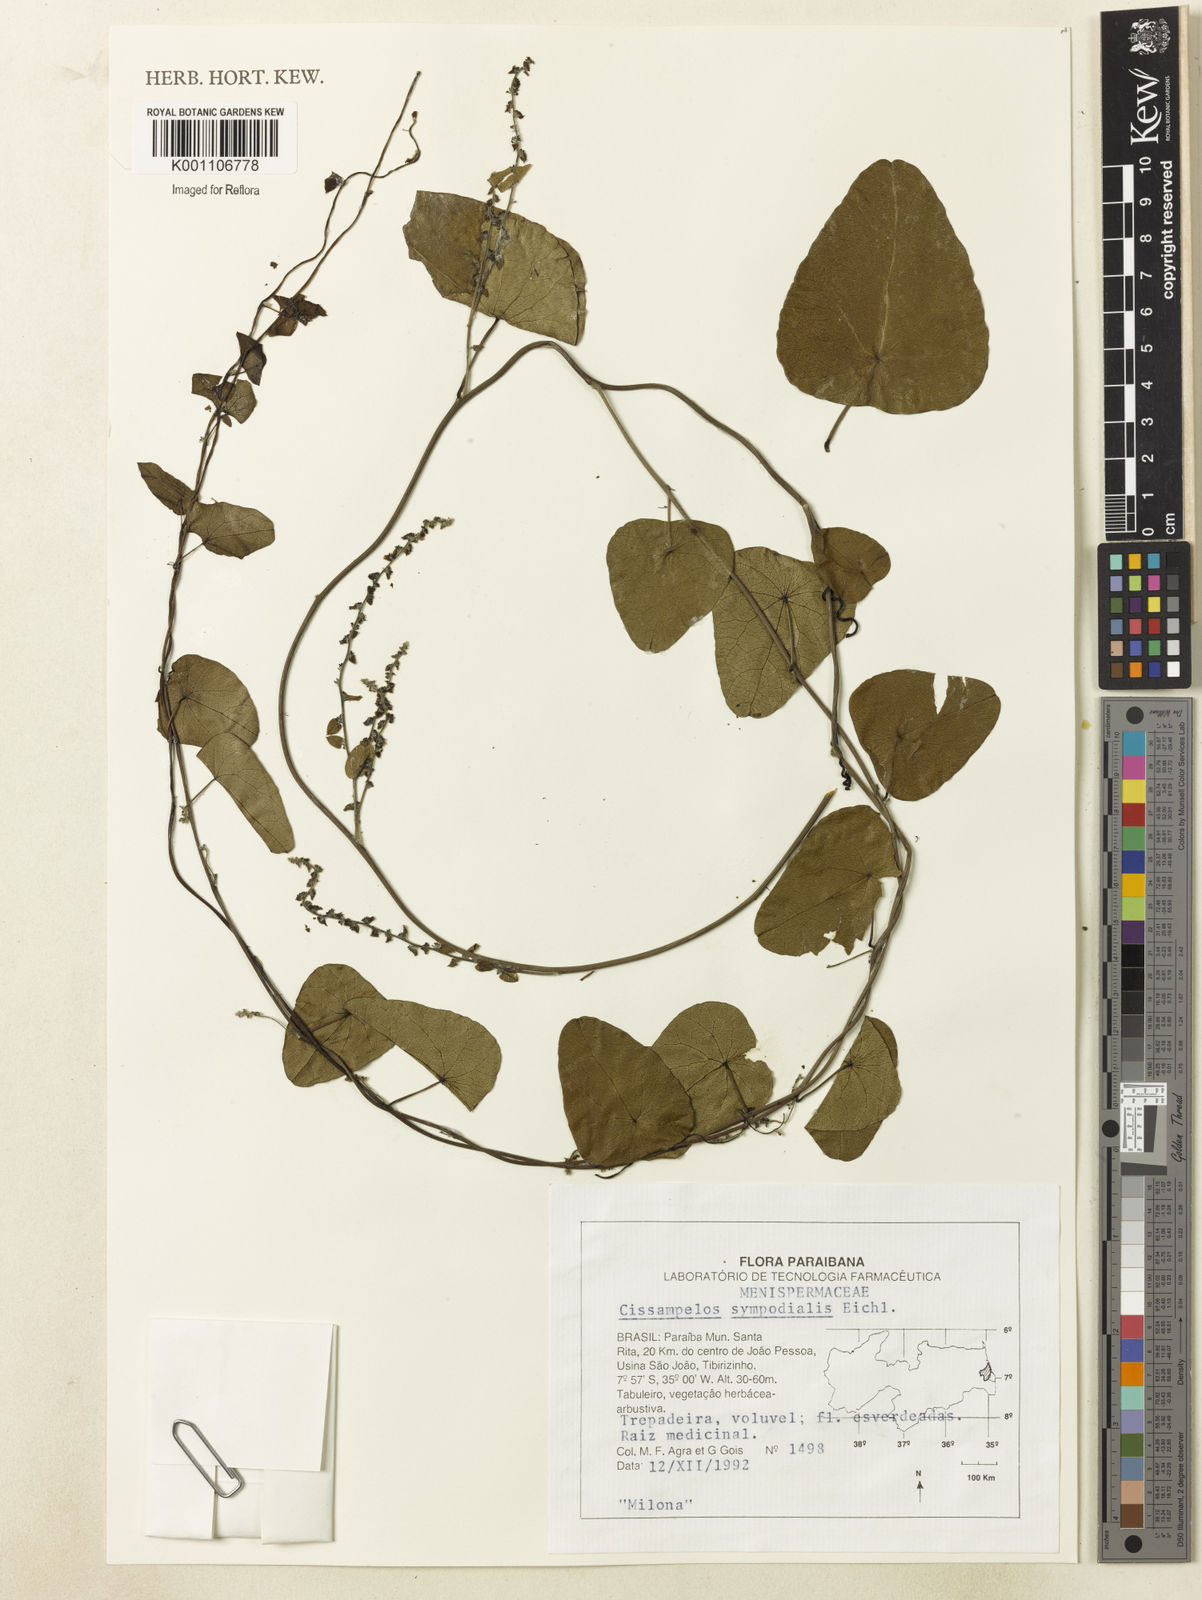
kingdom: Plantae
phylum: Tracheophyta
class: Magnoliopsida
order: Ranunculales
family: Menispermaceae
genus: Cissampelos
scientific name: Cissampelos sympodialis
